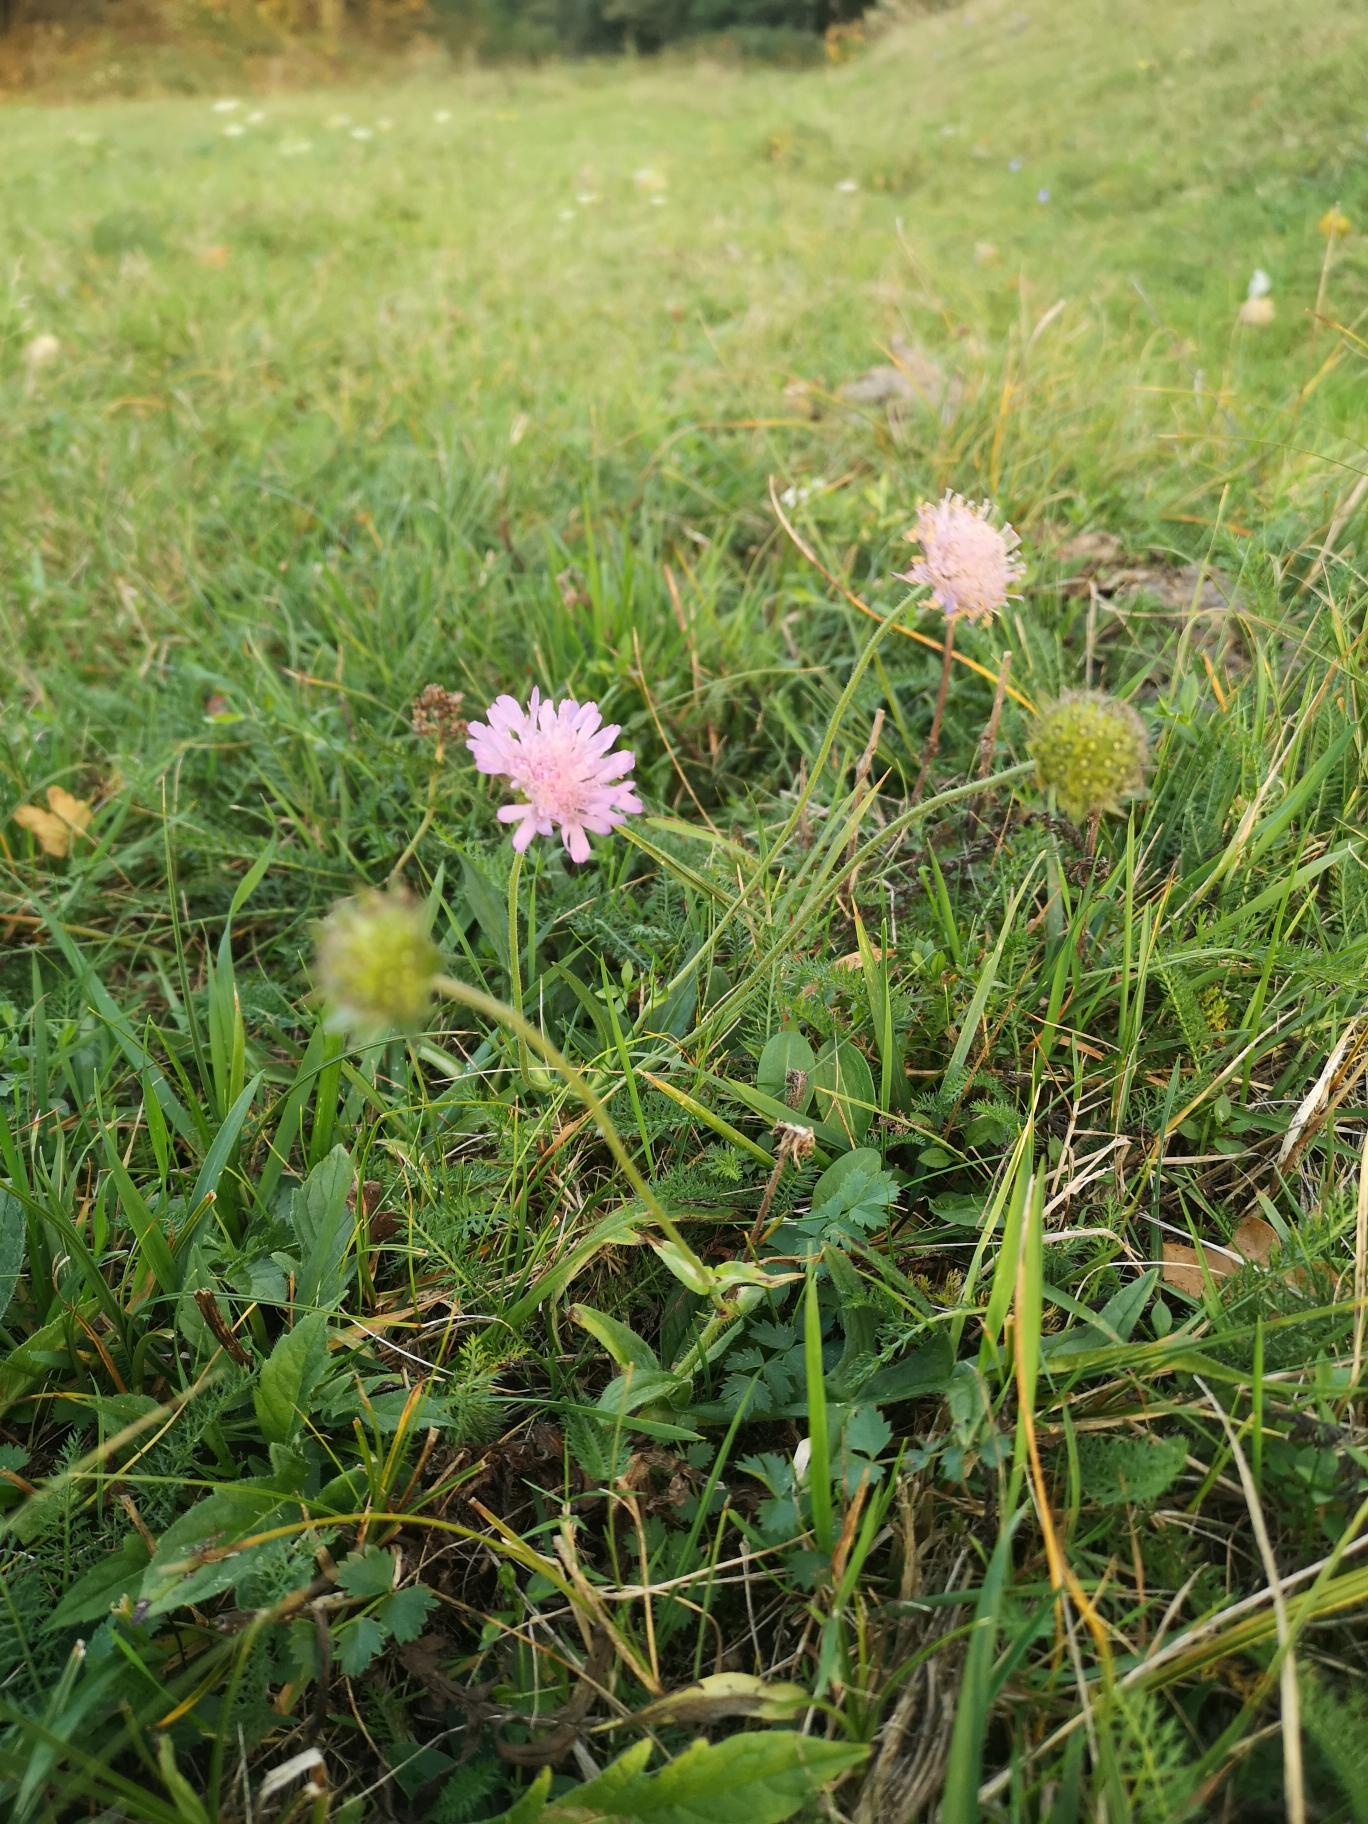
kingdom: Plantae
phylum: Tracheophyta
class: Magnoliopsida
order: Dipsacales
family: Caprifoliaceae
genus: Knautia
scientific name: Knautia arvensis
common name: Blåhat
